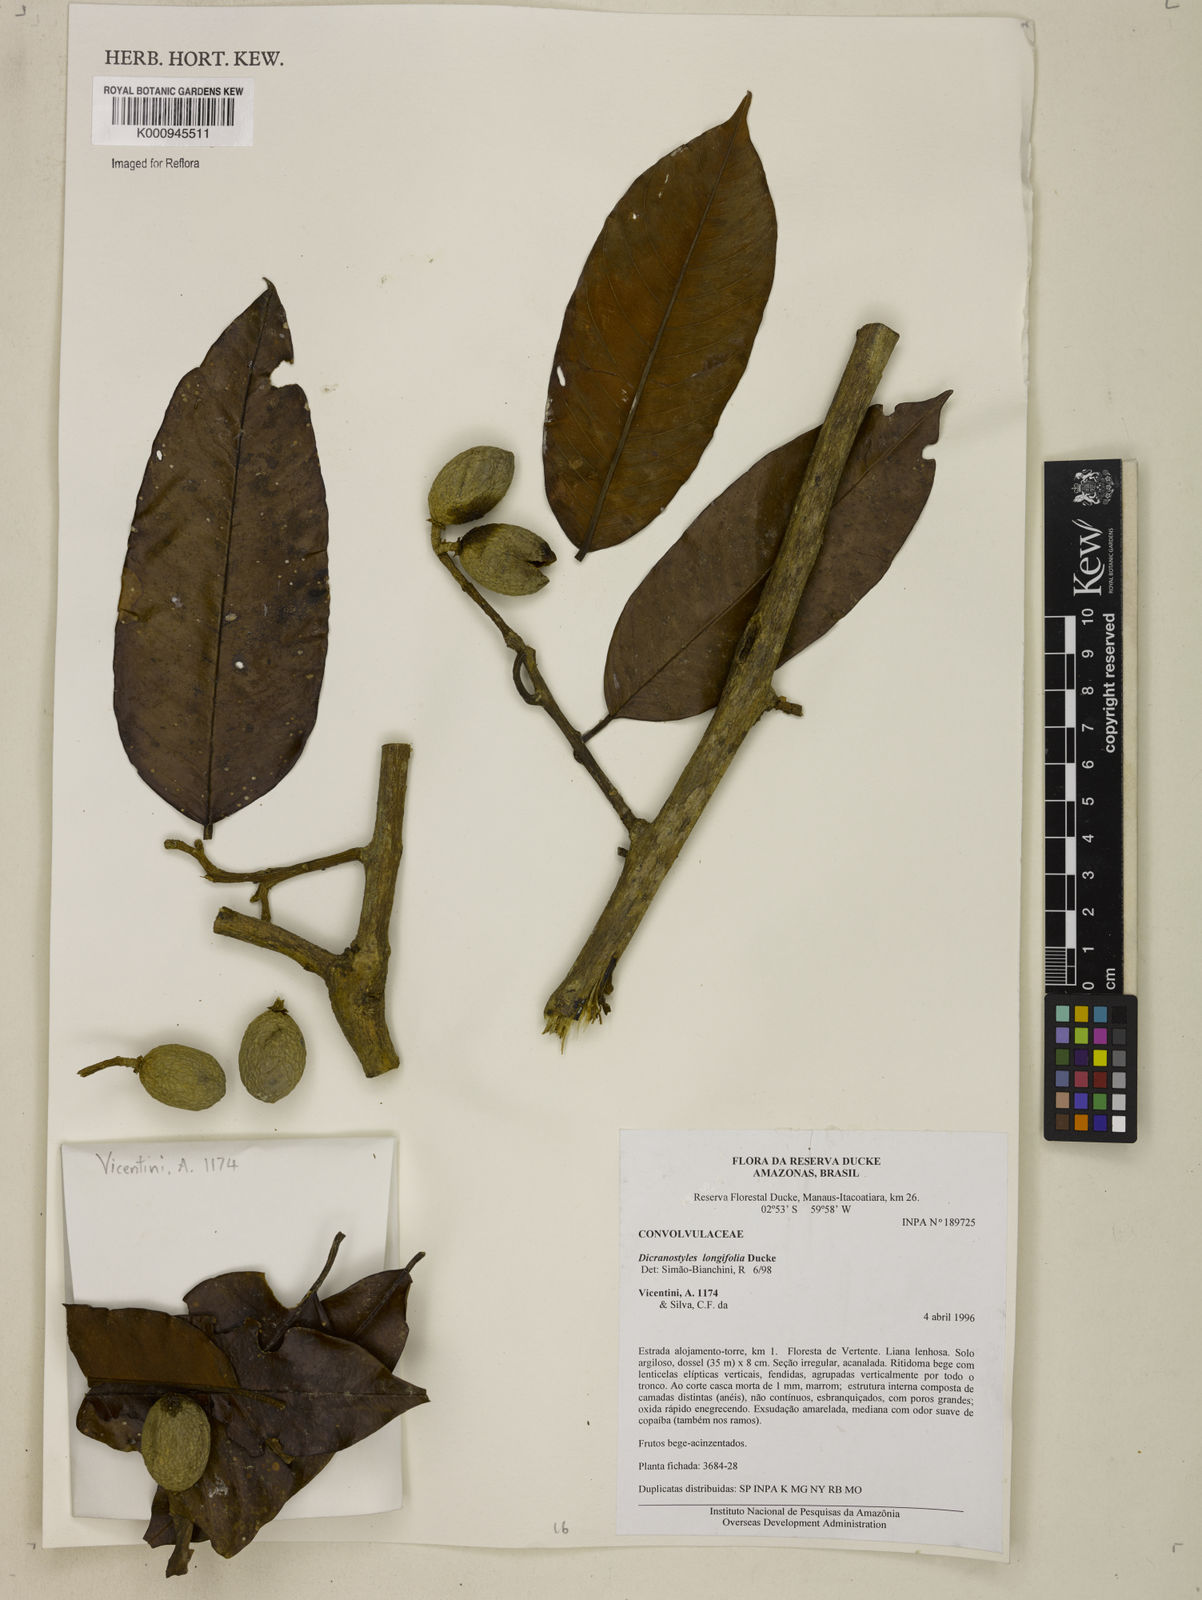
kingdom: Plantae
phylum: Tracheophyta
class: Magnoliopsida
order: Solanales
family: Convolvulaceae
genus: Dicranostyles
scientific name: Dicranostyles longifolia
